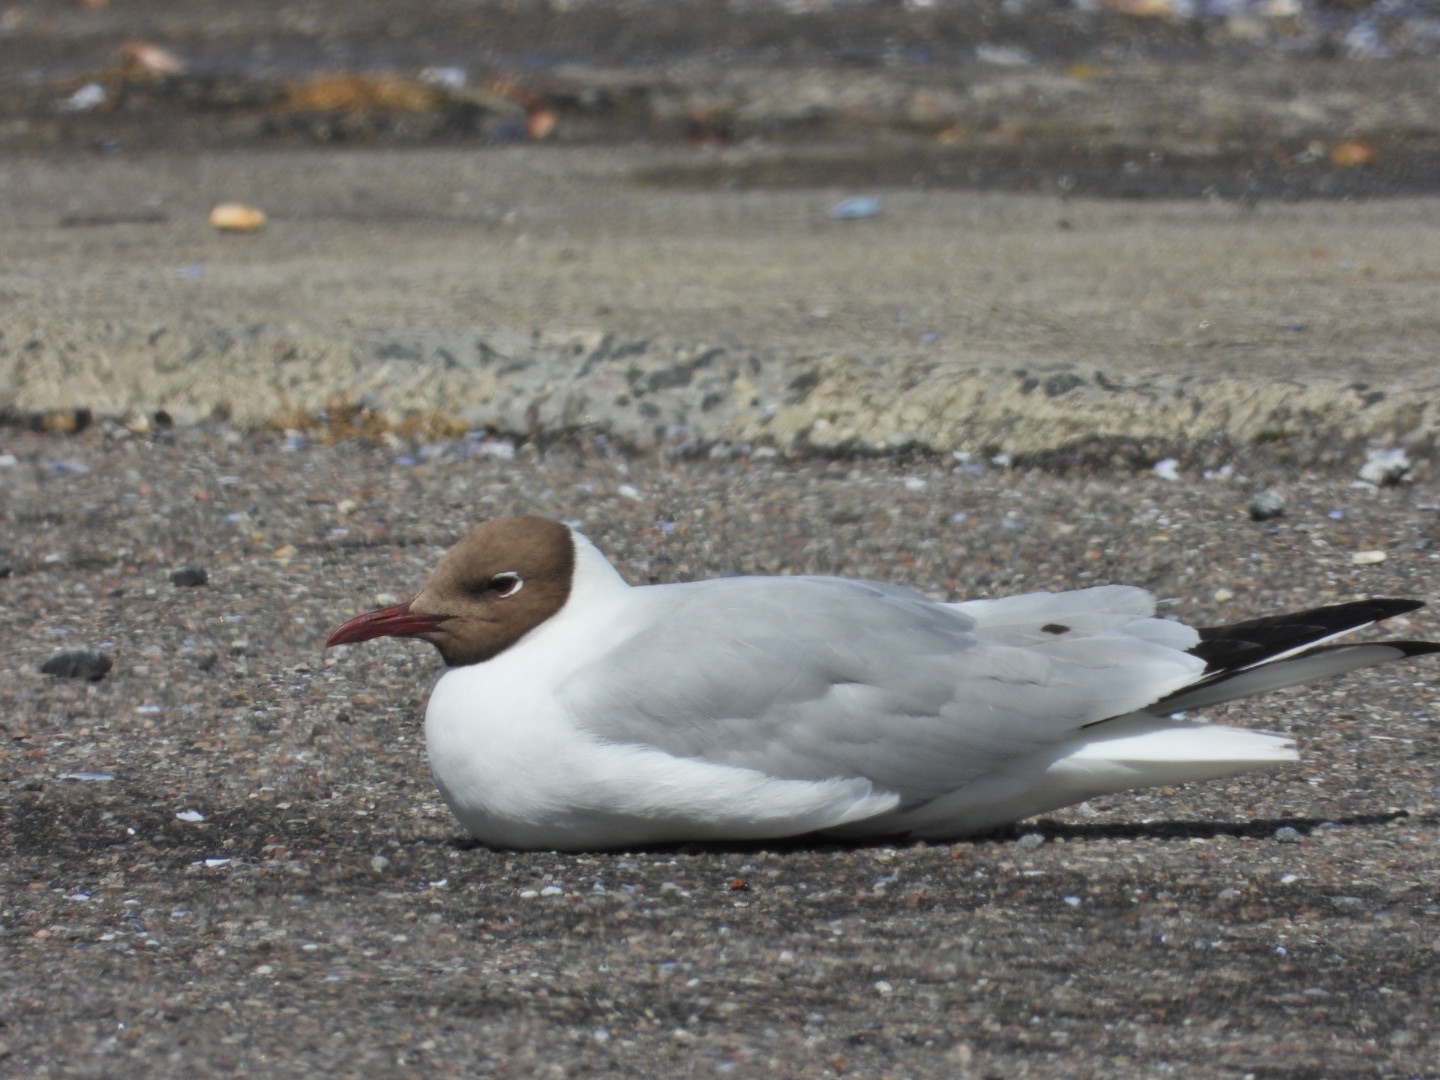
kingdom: Animalia
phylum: Chordata
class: Aves
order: Charadriiformes
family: Laridae
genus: Chroicocephalus
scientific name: Chroicocephalus ridibundus
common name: Hættemåge
